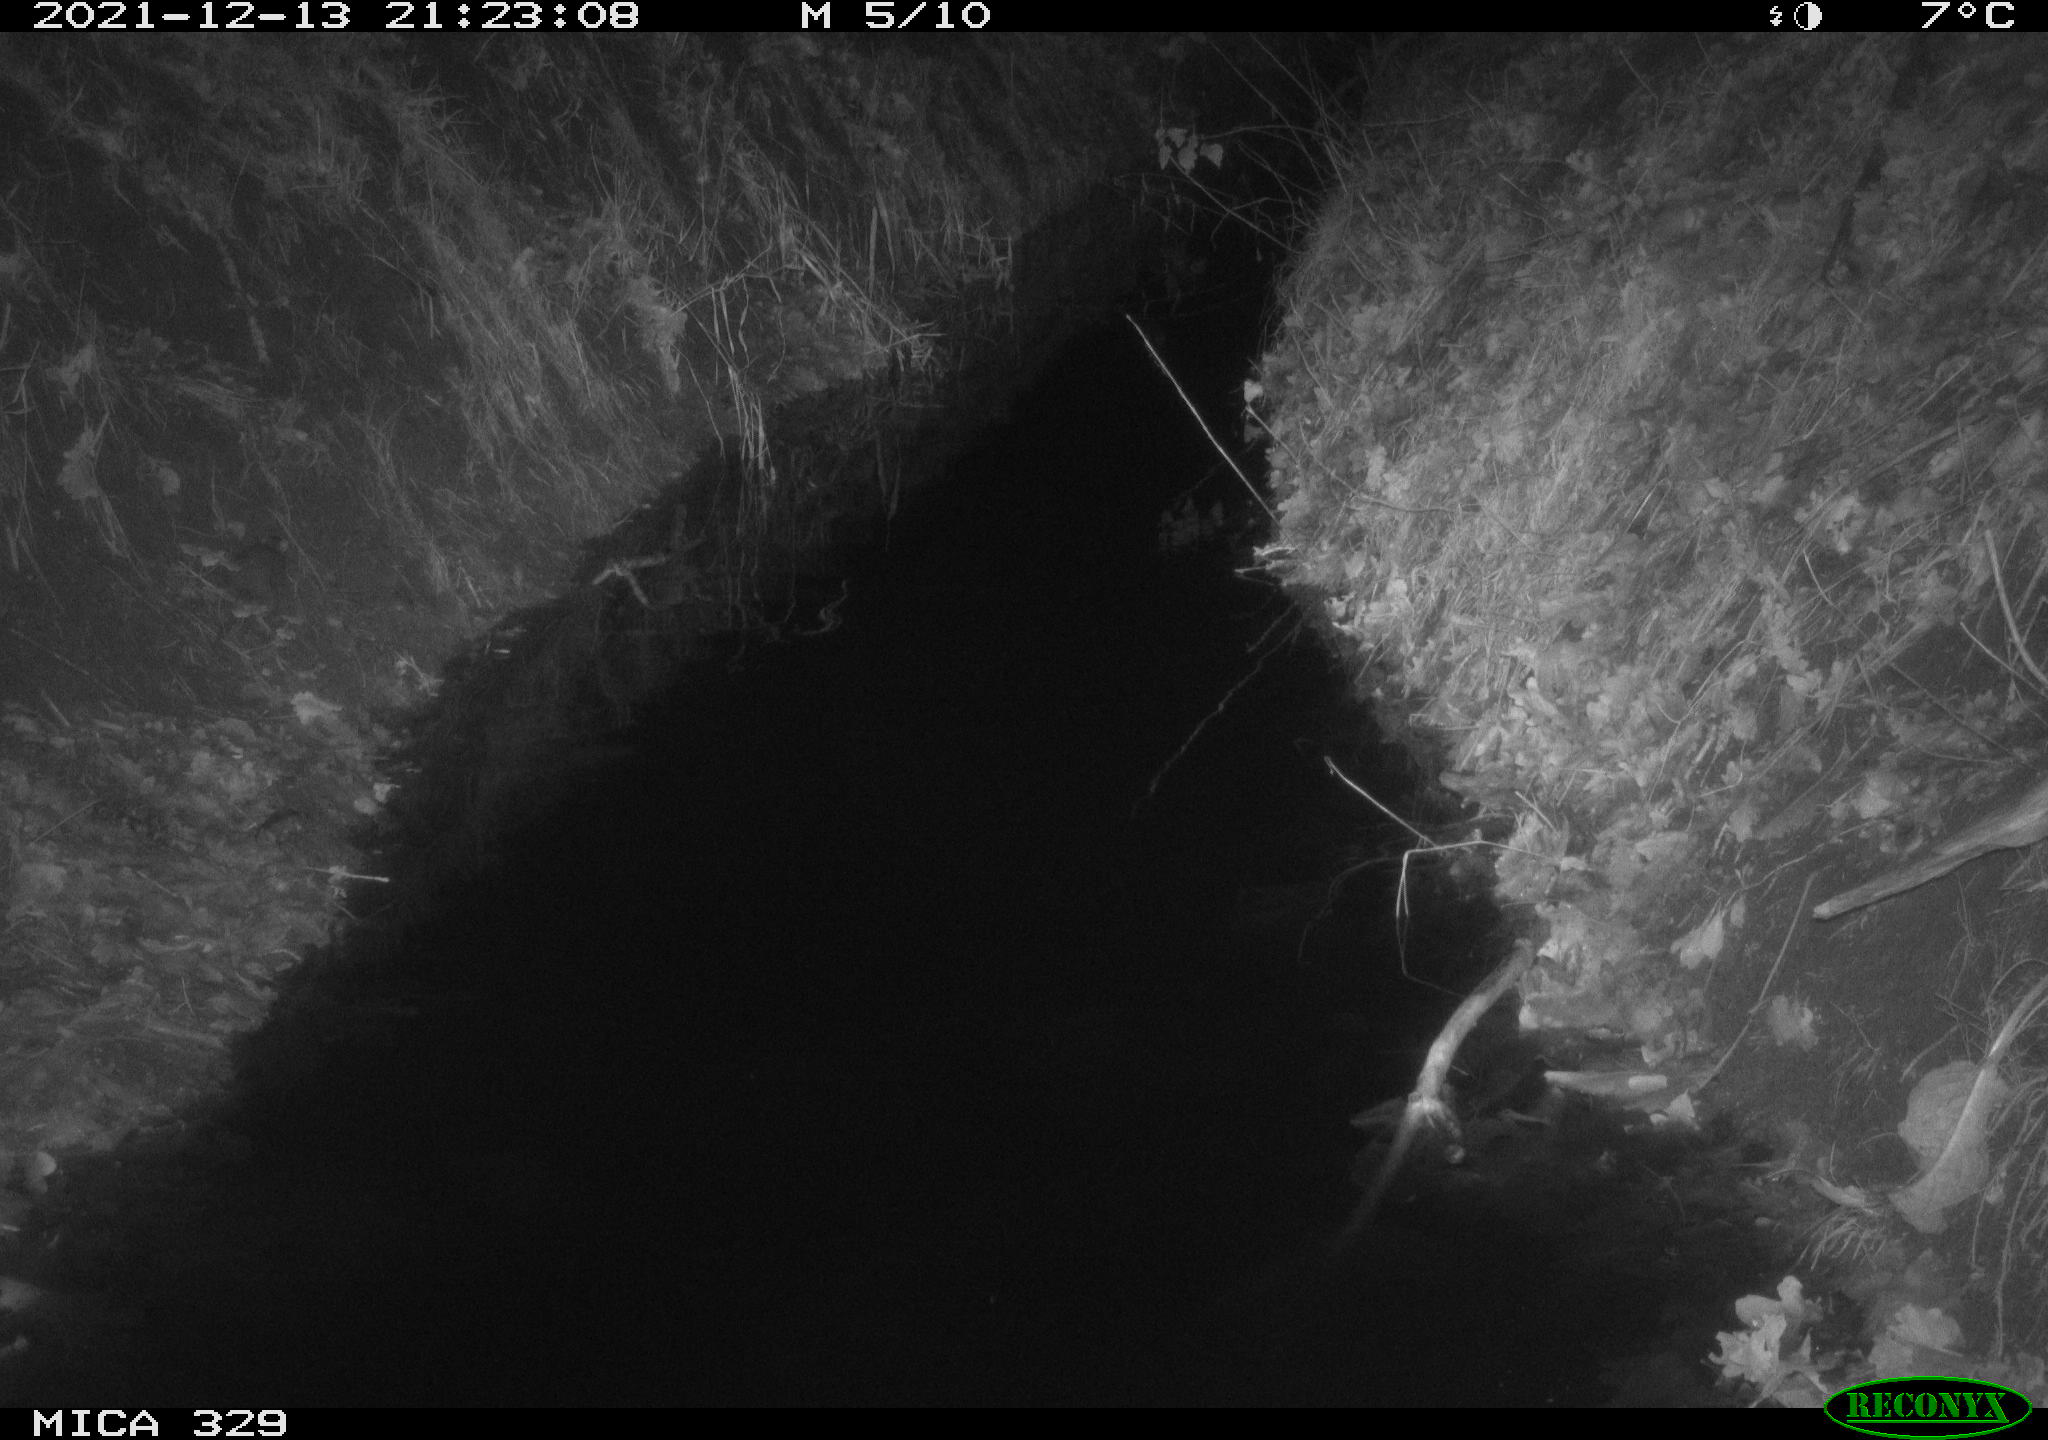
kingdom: Animalia
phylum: Chordata
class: Mammalia
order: Rodentia
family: Muridae
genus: Rattus
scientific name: Rattus norvegicus
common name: Brown rat
